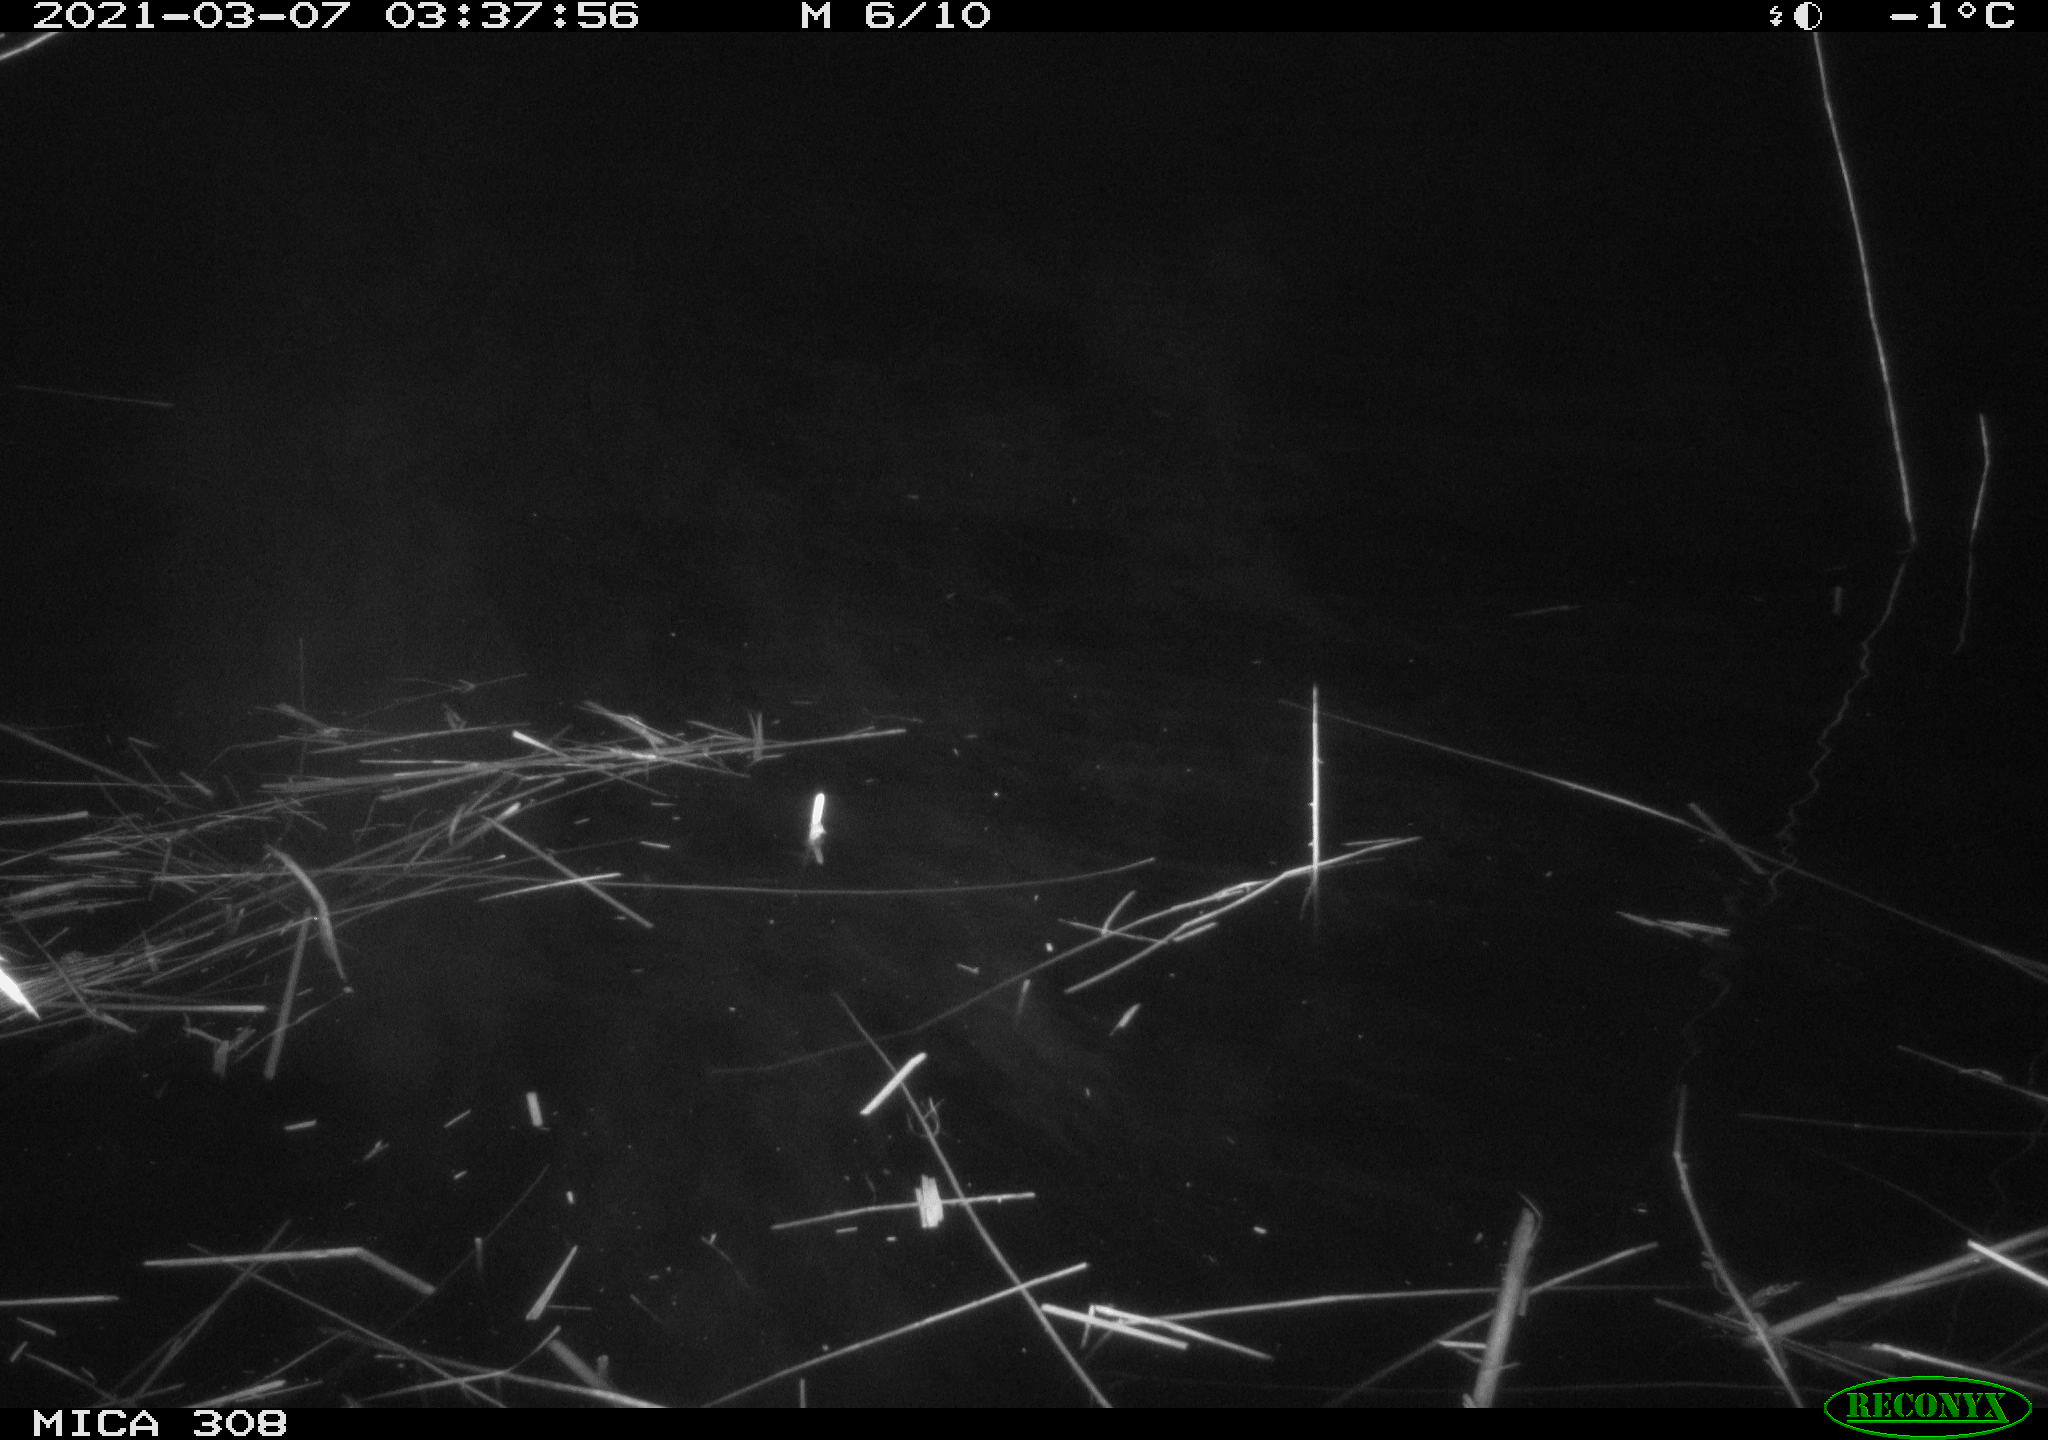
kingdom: Animalia
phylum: Chordata
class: Mammalia
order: Rodentia
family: Cricetidae
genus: Ondatra
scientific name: Ondatra zibethicus
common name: Muskrat
